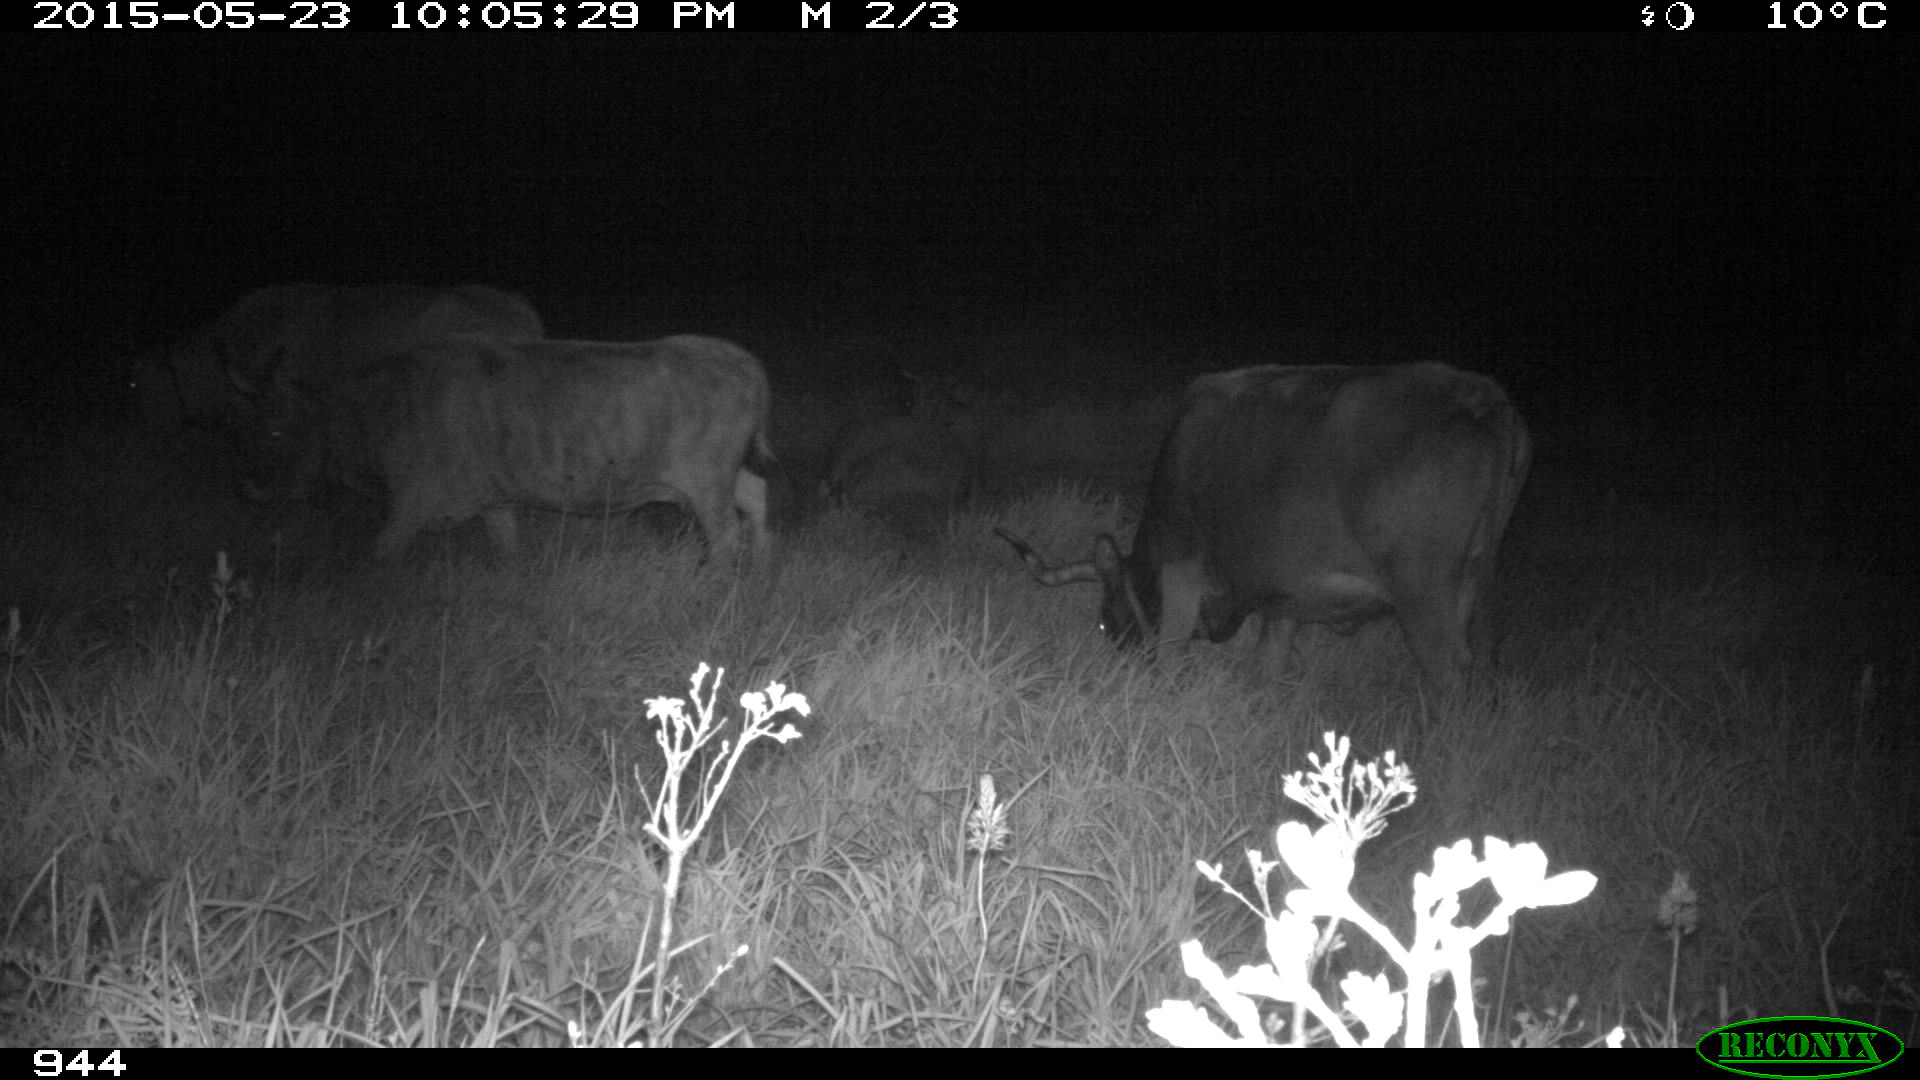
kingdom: Animalia
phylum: Chordata
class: Mammalia
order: Artiodactyla
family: Bovidae
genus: Bos
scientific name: Bos taurus
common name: Domesticated cattle
